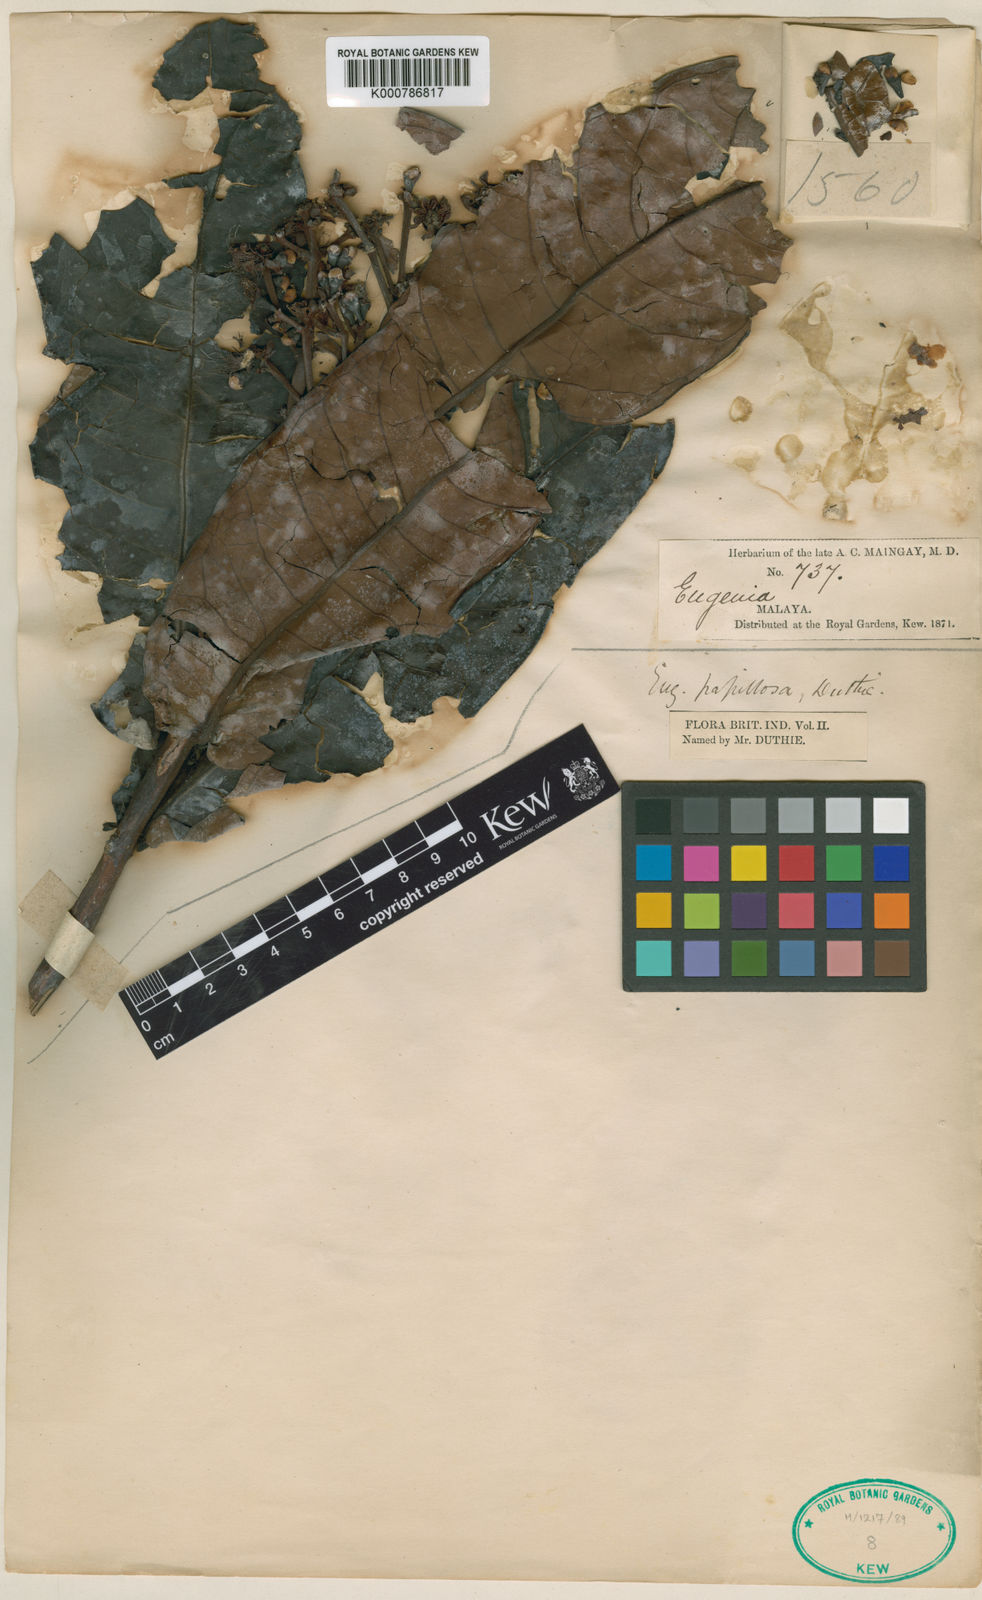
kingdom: Plantae
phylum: Tracheophyta
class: Magnoliopsida
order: Myrtales
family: Myrtaceae
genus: Syzygium
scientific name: Syzygium papillosum
